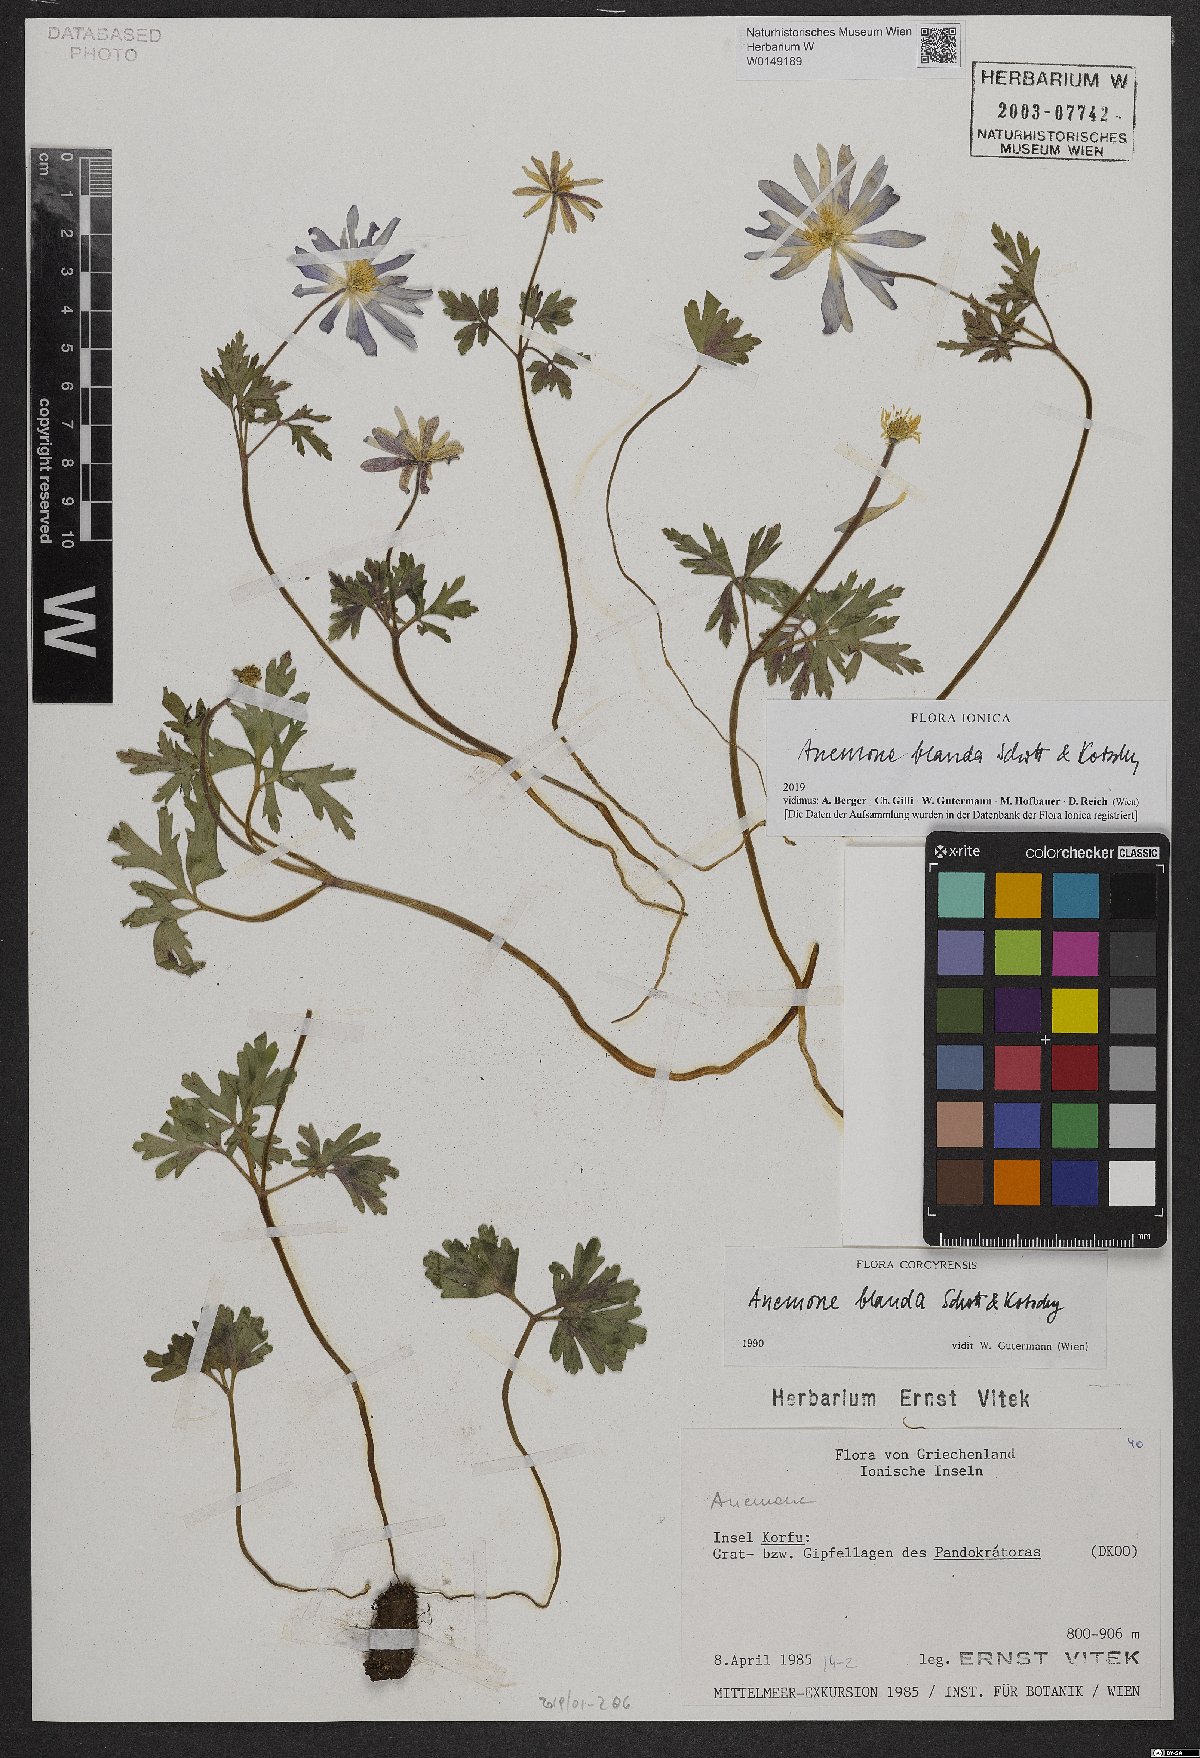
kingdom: Plantae
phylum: Tracheophyta
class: Magnoliopsida
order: Ranunculales
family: Ranunculaceae
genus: Anemone
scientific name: Anemone blanda
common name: Balkan anemone
